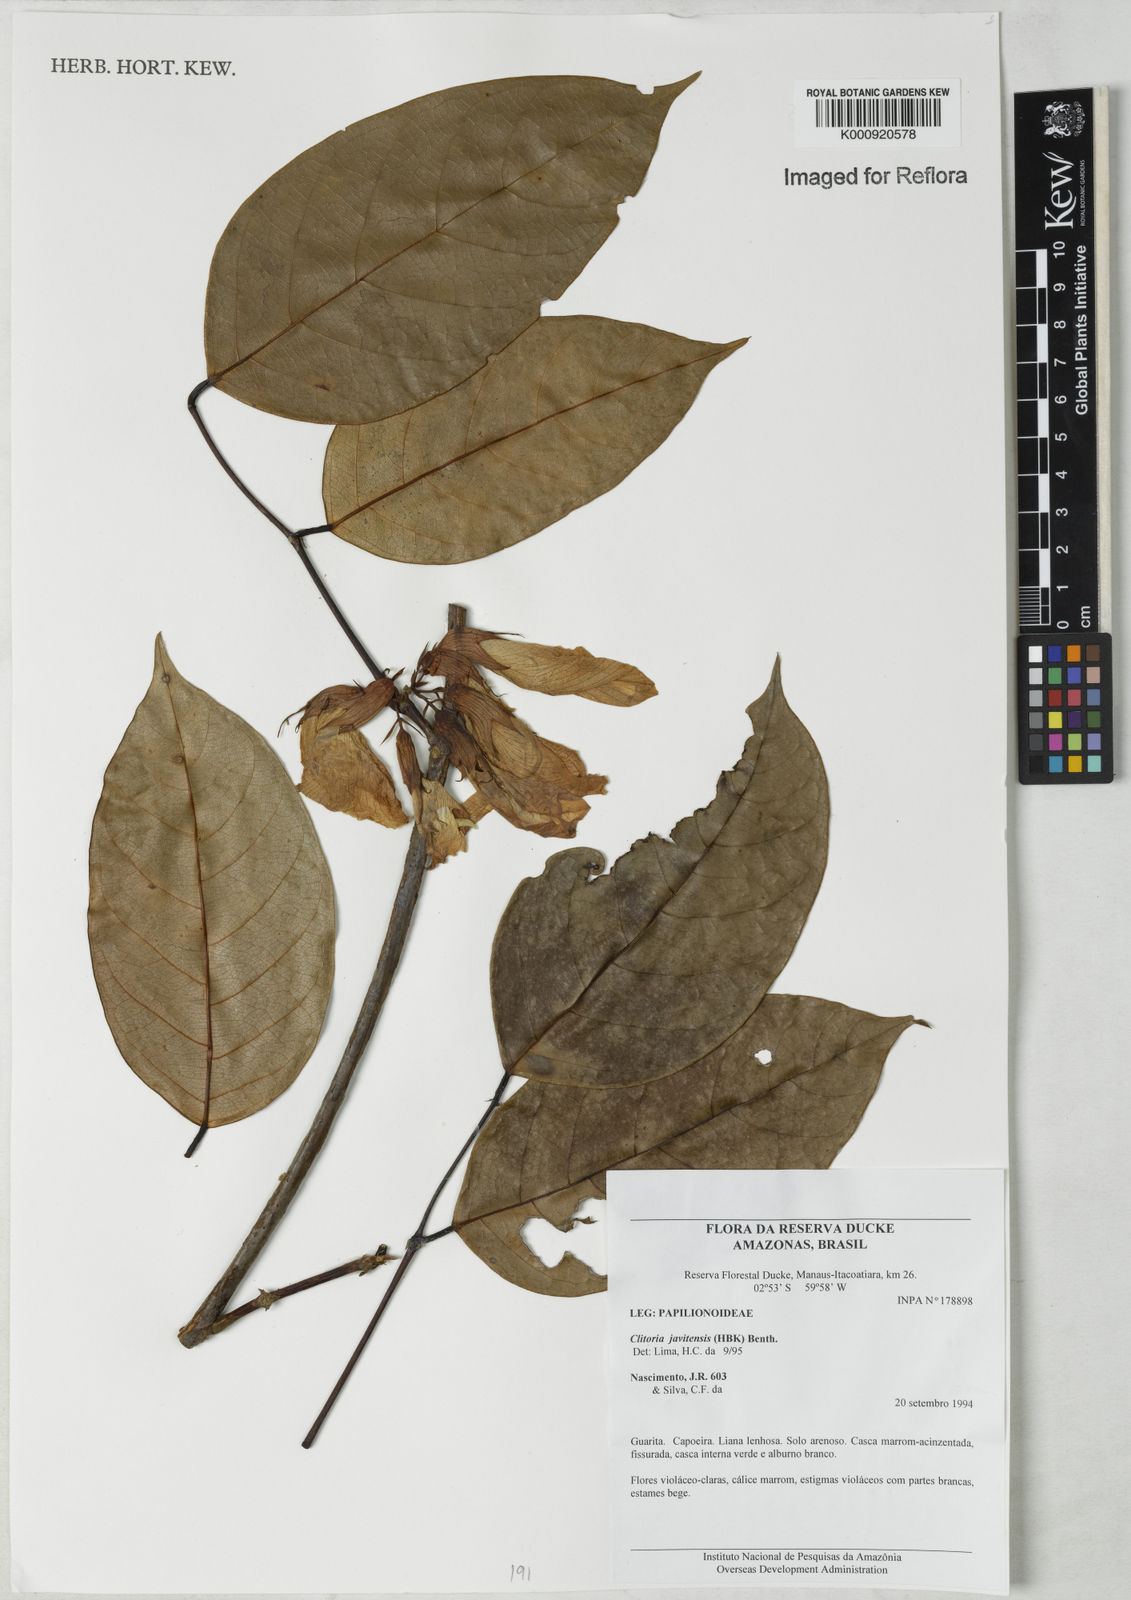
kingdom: Plantae
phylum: Tracheophyta
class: Magnoliopsida
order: Fabales
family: Fabaceae
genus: Clitoria
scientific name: Clitoria javitensis
